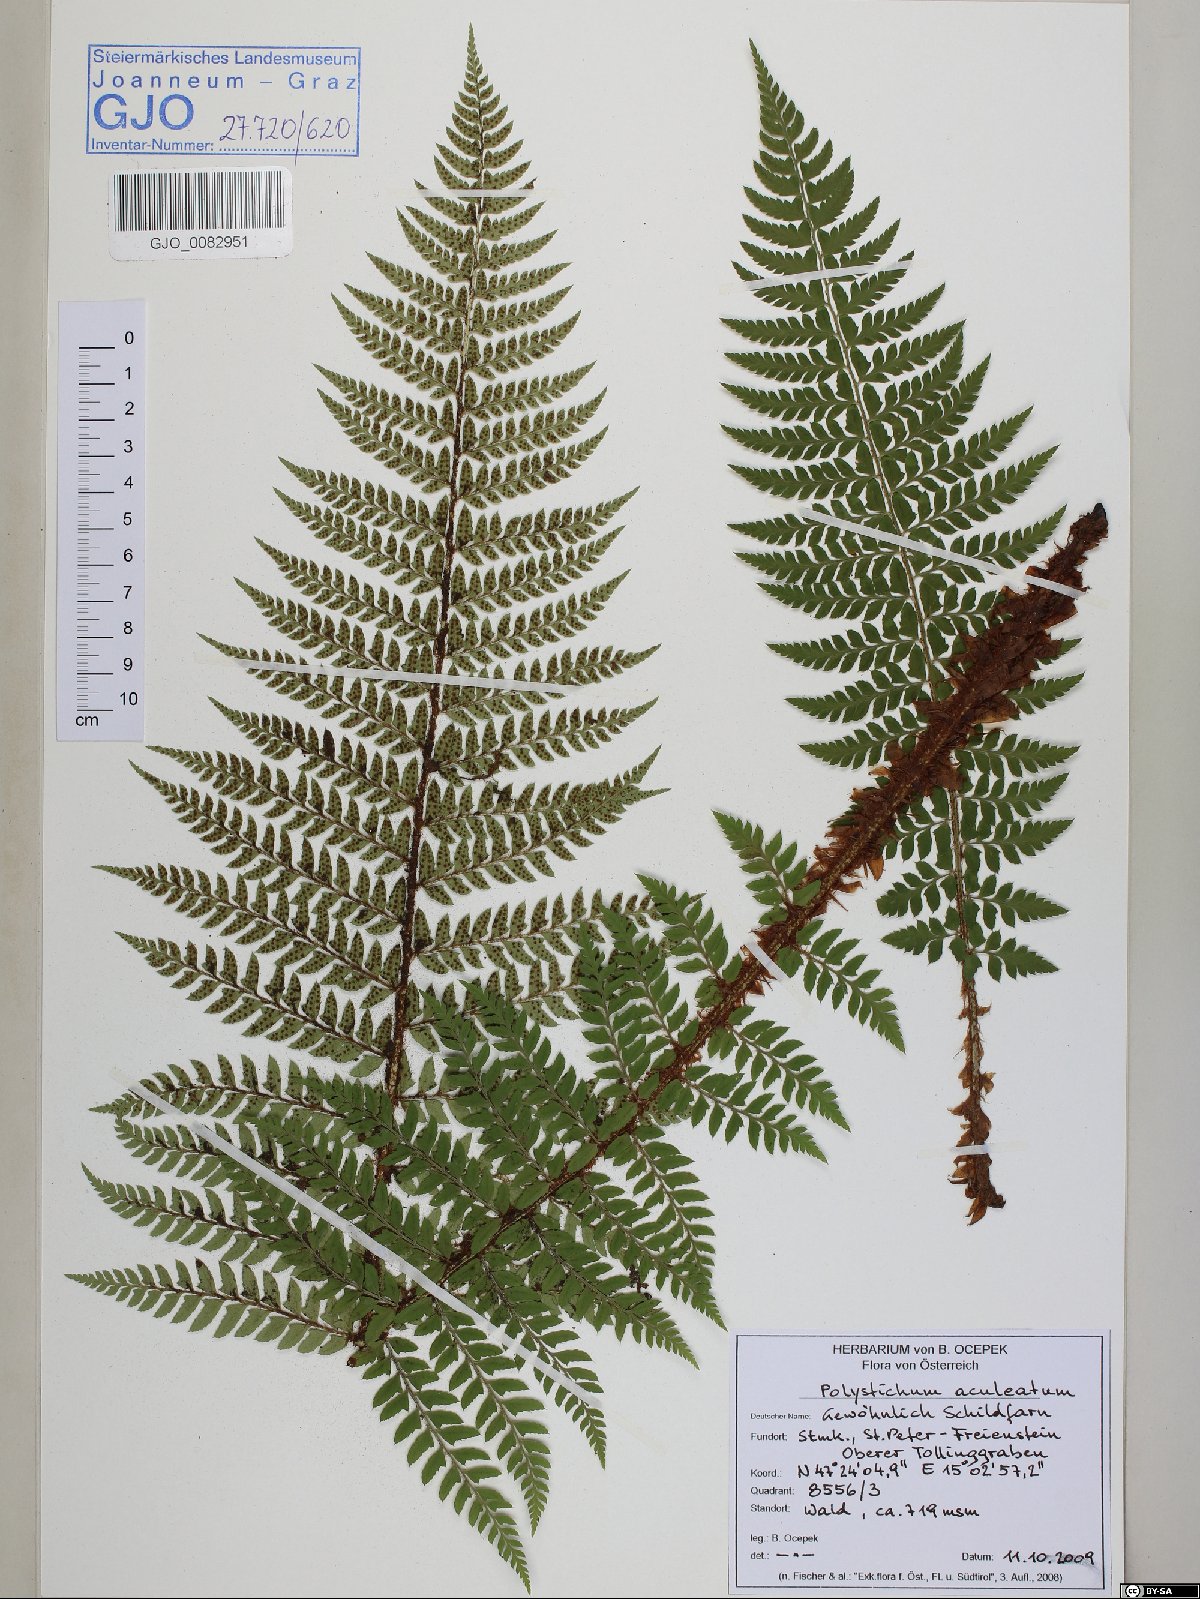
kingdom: Plantae
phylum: Tracheophyta
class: Polypodiopsida
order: Polypodiales
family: Dryopteridaceae
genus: Polystichum
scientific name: Polystichum aculeatum
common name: Hard shield-fern
